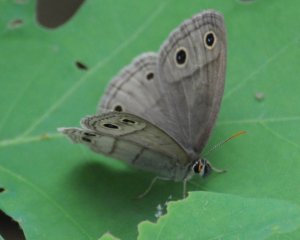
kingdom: Animalia
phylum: Arthropoda
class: Insecta
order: Lepidoptera
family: Nymphalidae
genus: Euptychia
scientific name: Euptychia cymela
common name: Little Wood Satyr
